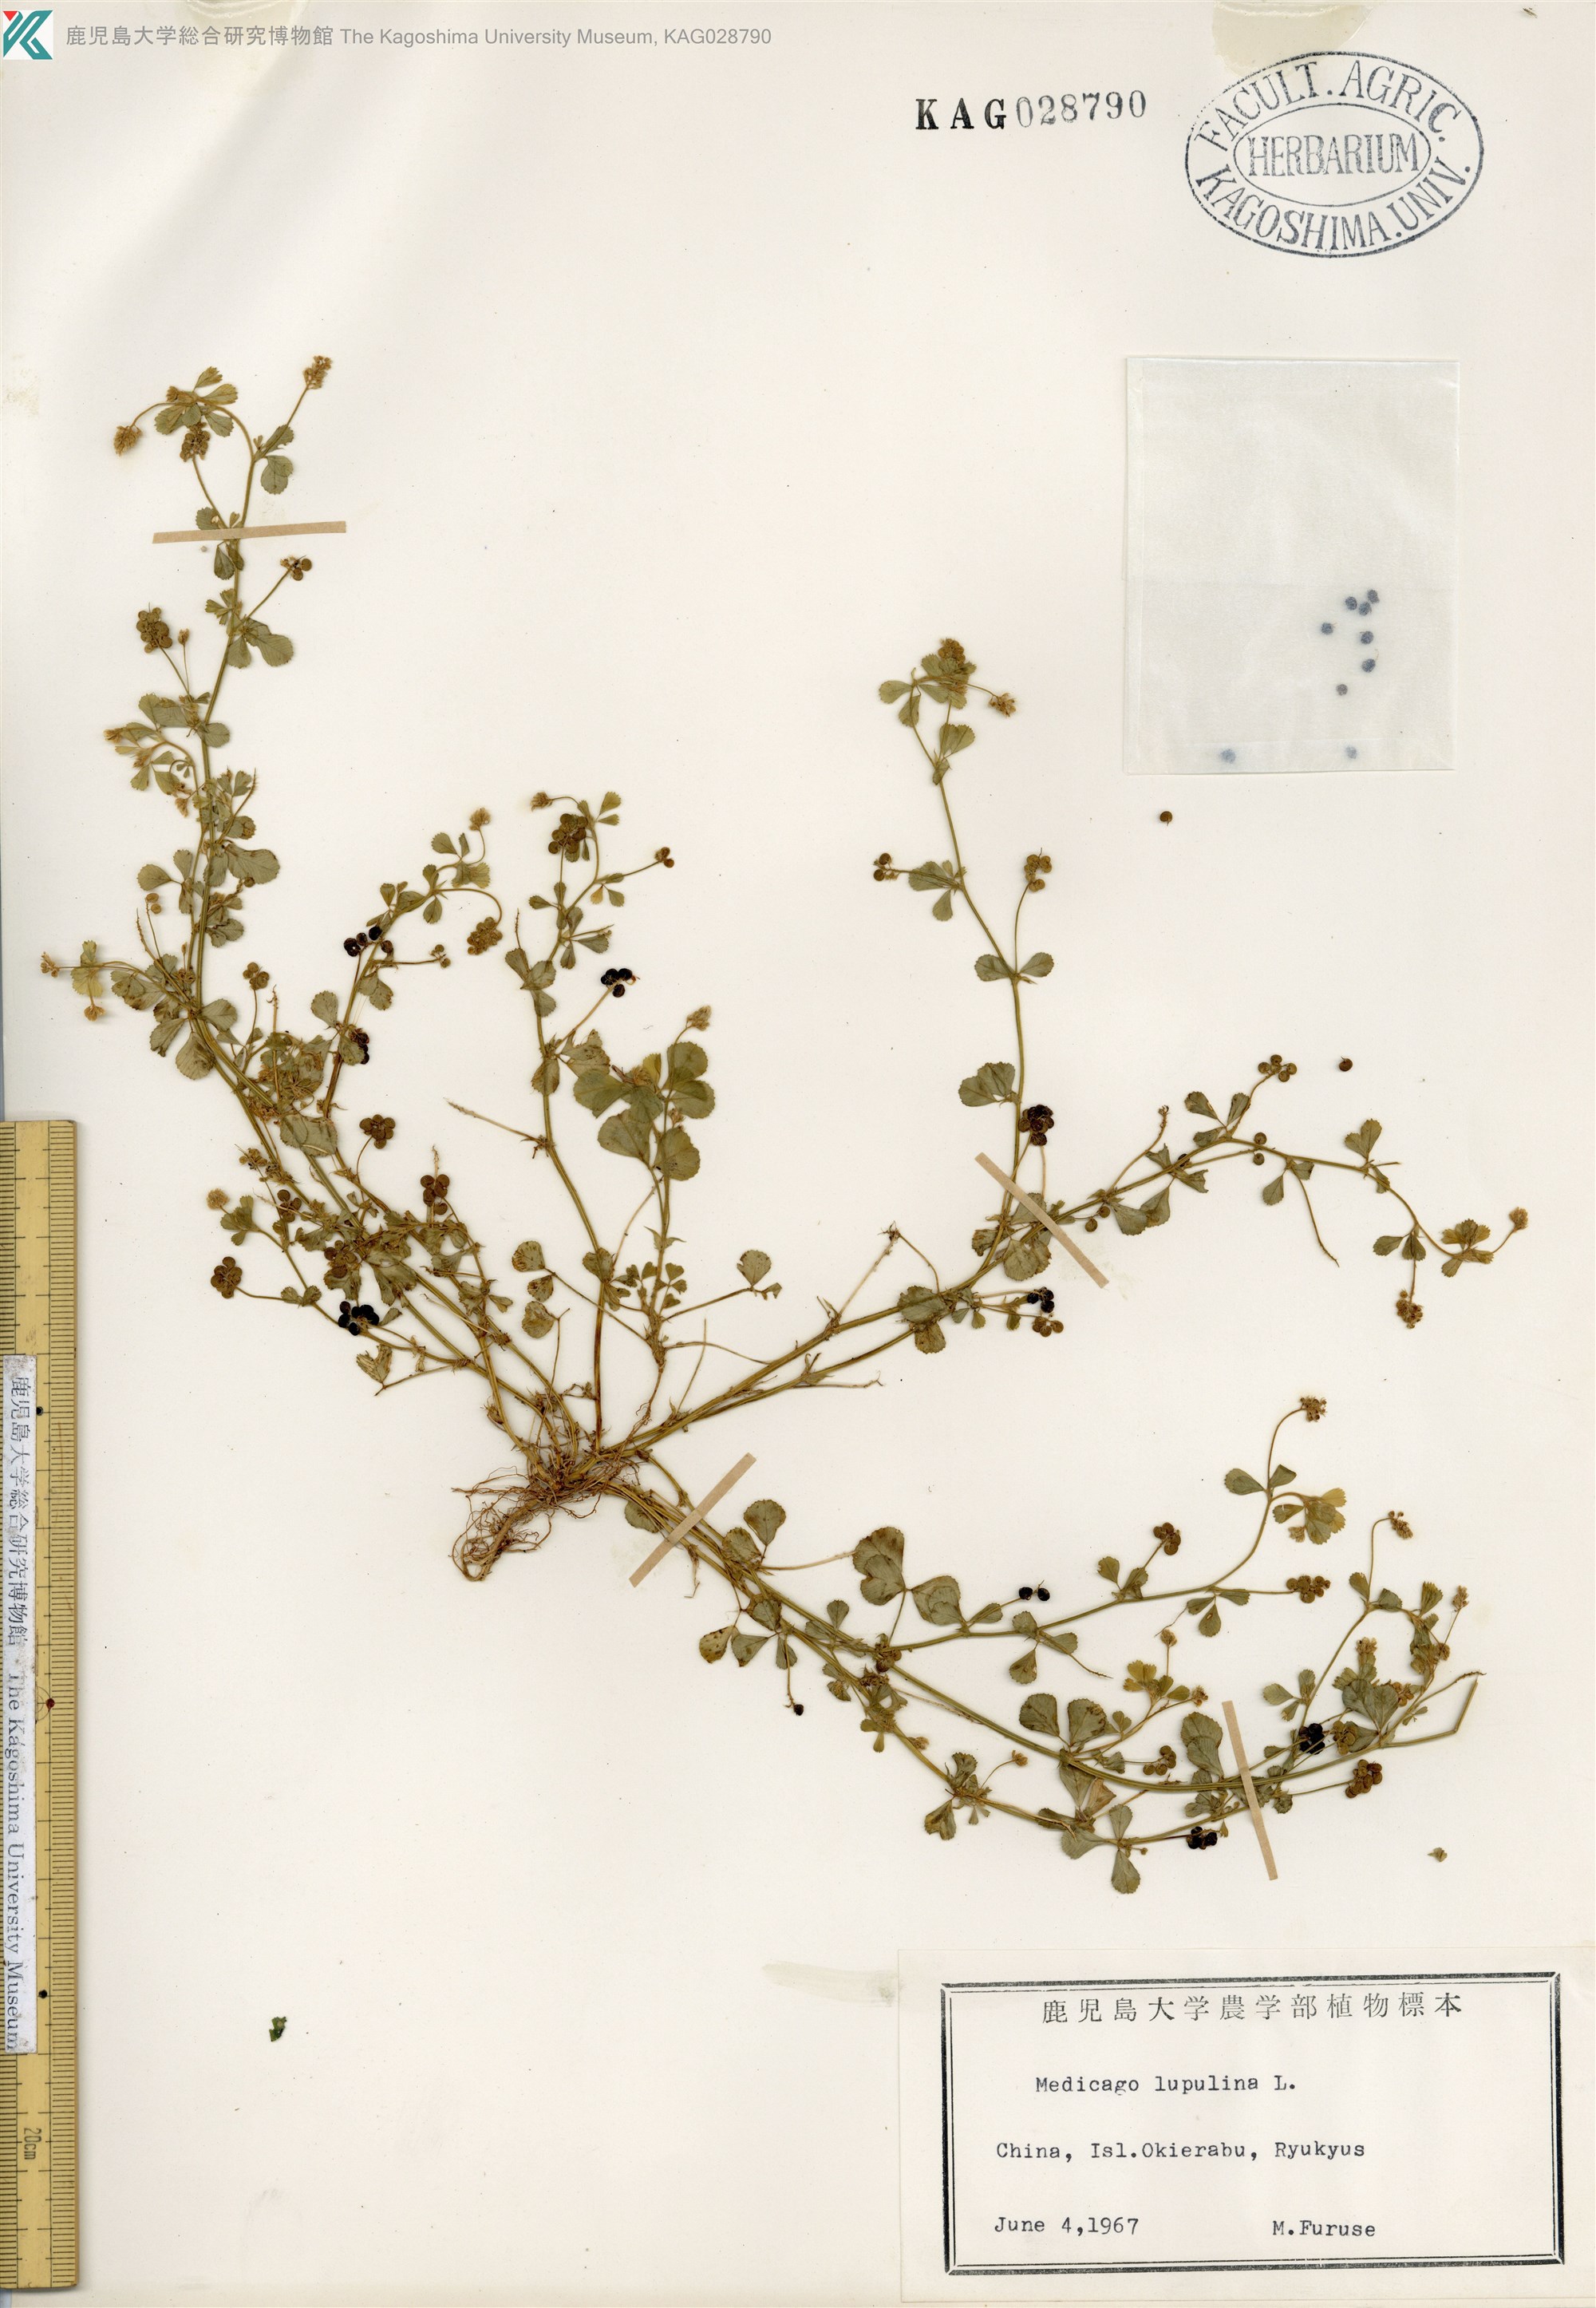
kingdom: Plantae
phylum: Tracheophyta
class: Magnoliopsida
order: Fabales
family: Fabaceae
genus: Medicago
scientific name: Medicago lupulina
